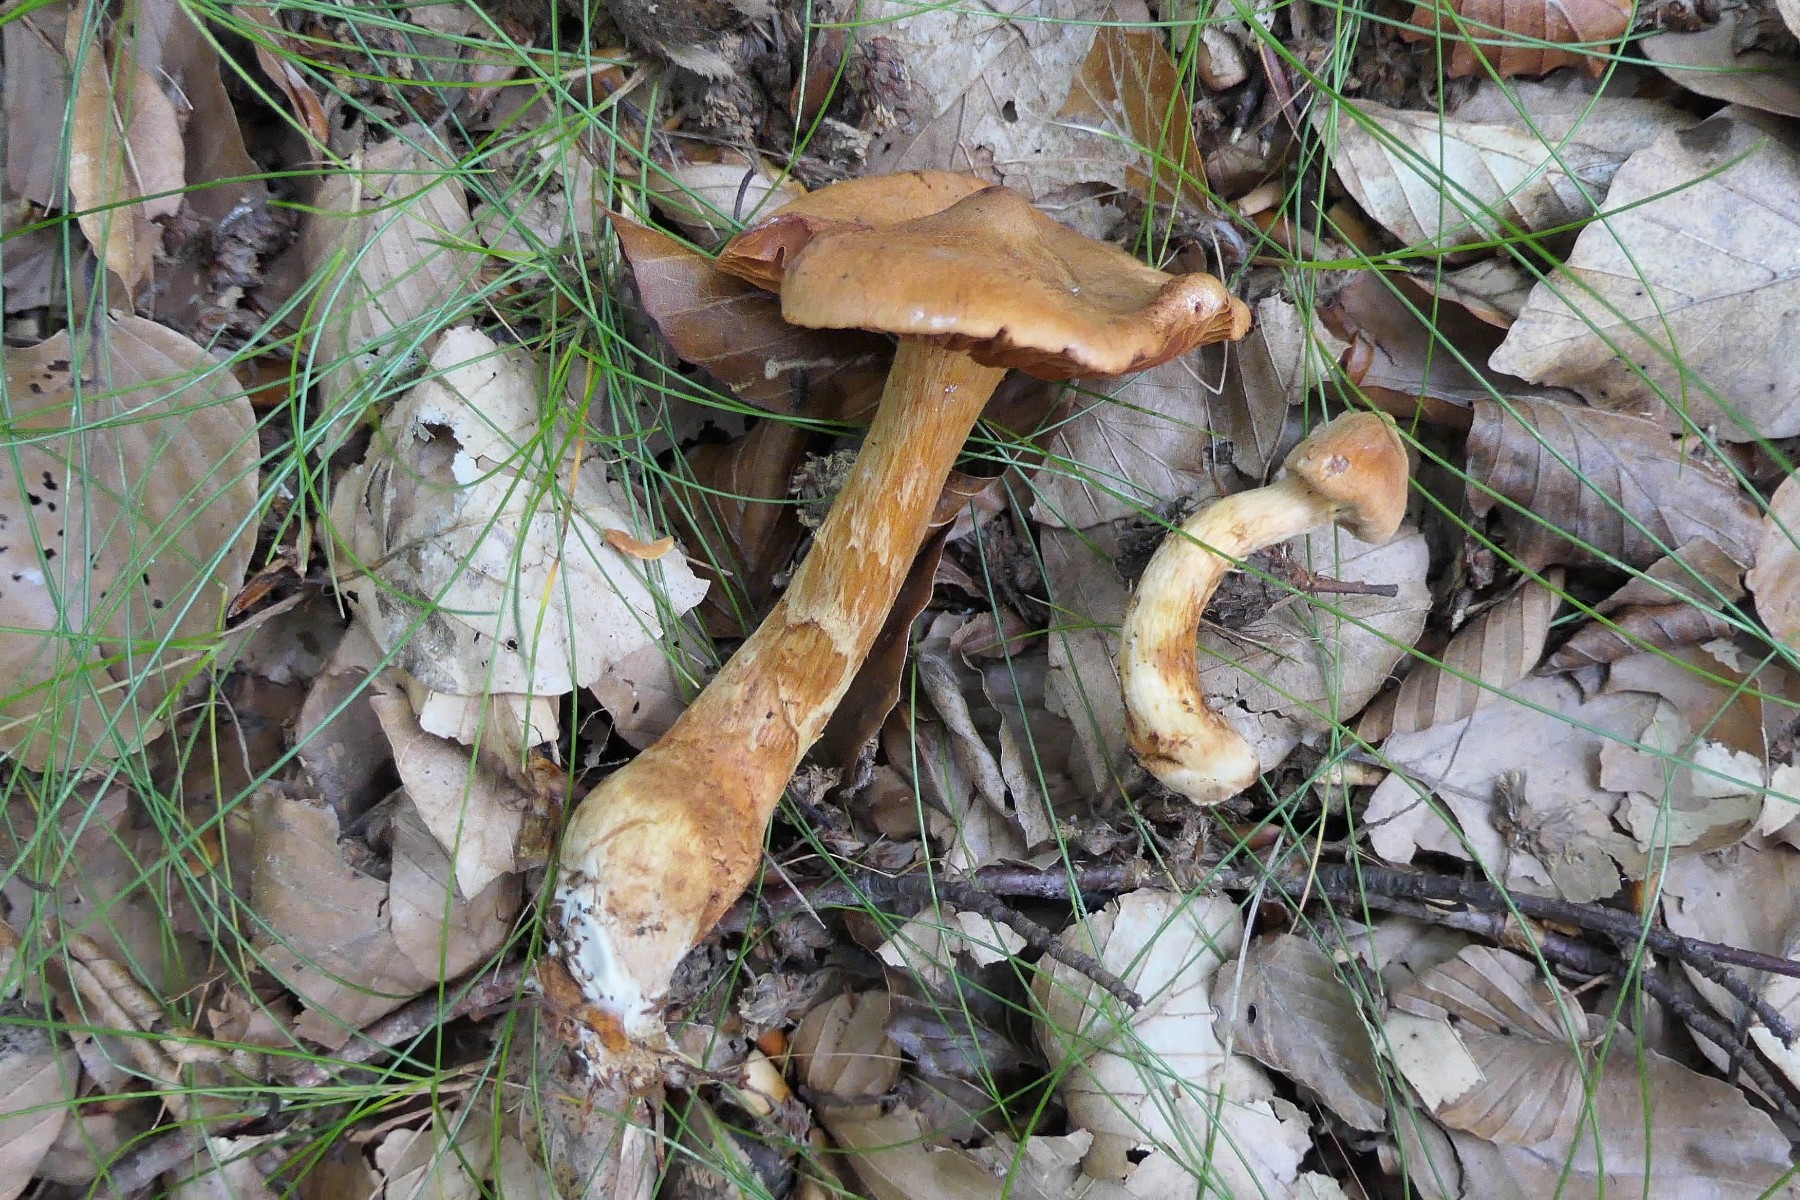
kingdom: Fungi
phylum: Basidiomycota
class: Agaricomycetes
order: Agaricales
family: Cortinariaceae
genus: Cortinarius
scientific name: Cortinarius rubellus
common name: puklet gift-slørhat
